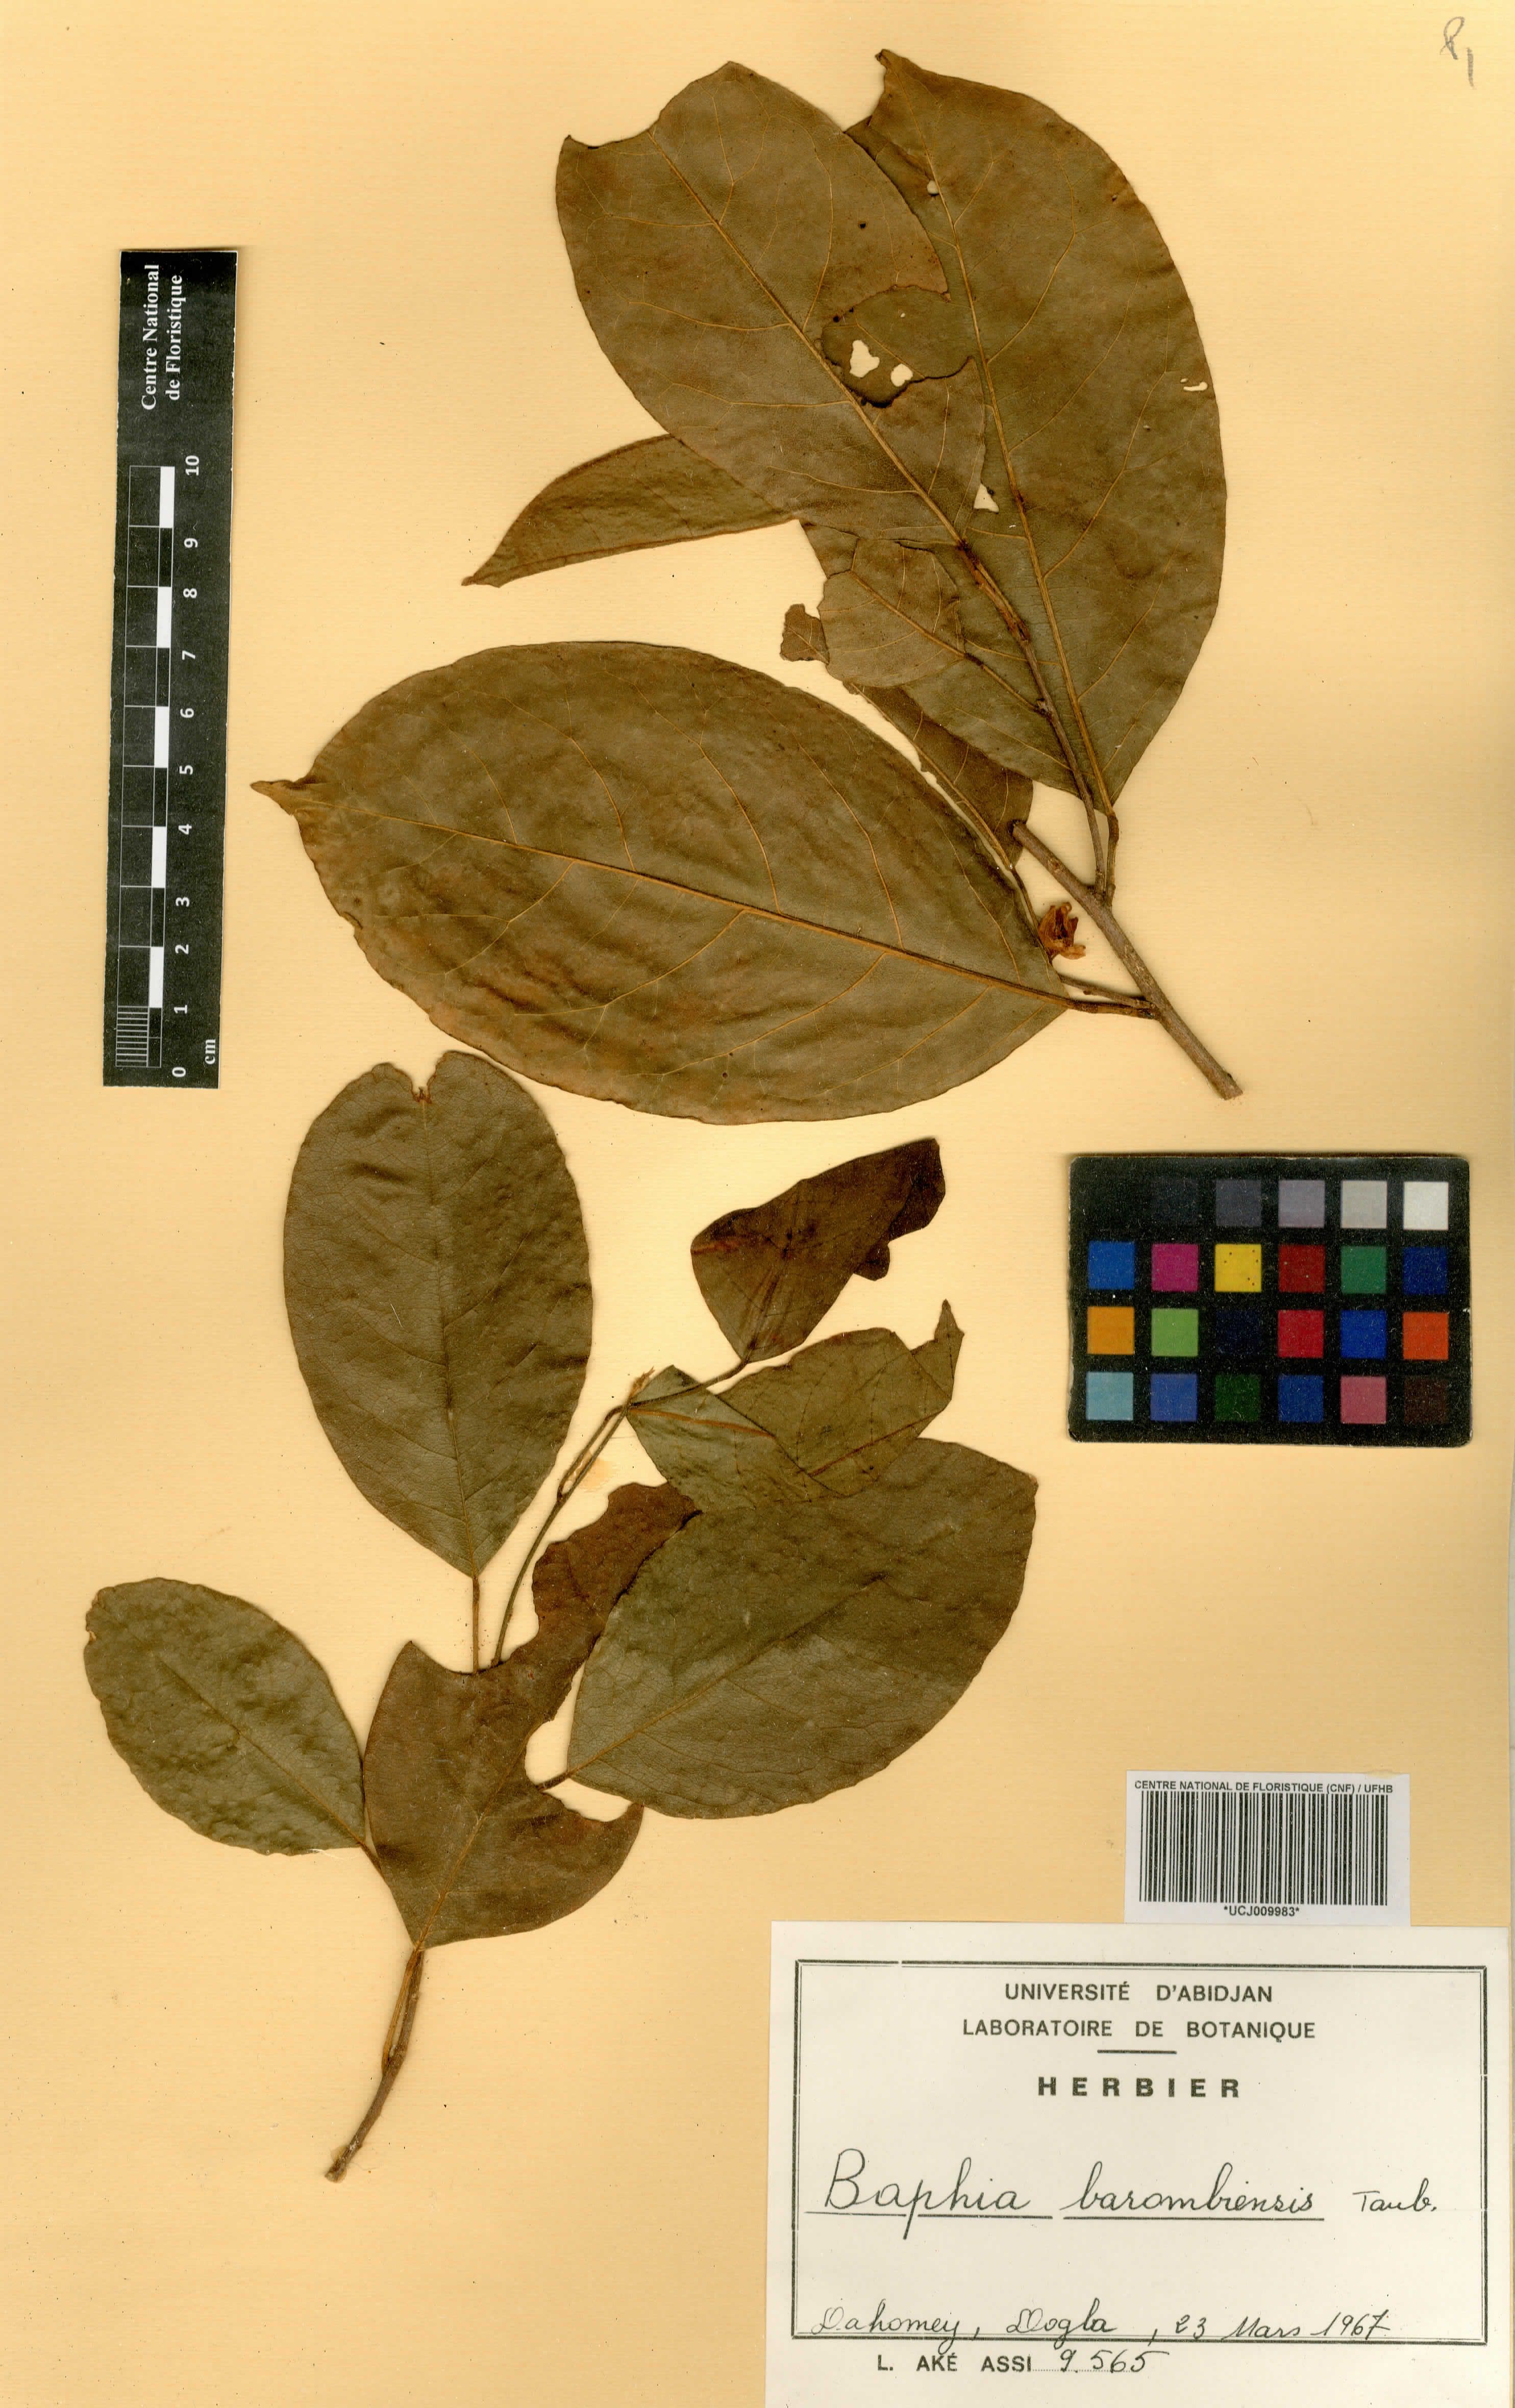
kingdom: Plantae
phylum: Tracheophyta
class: Magnoliopsida
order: Fabales
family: Fabaceae
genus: Baphia
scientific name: Baphia nitida
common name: Camwood
